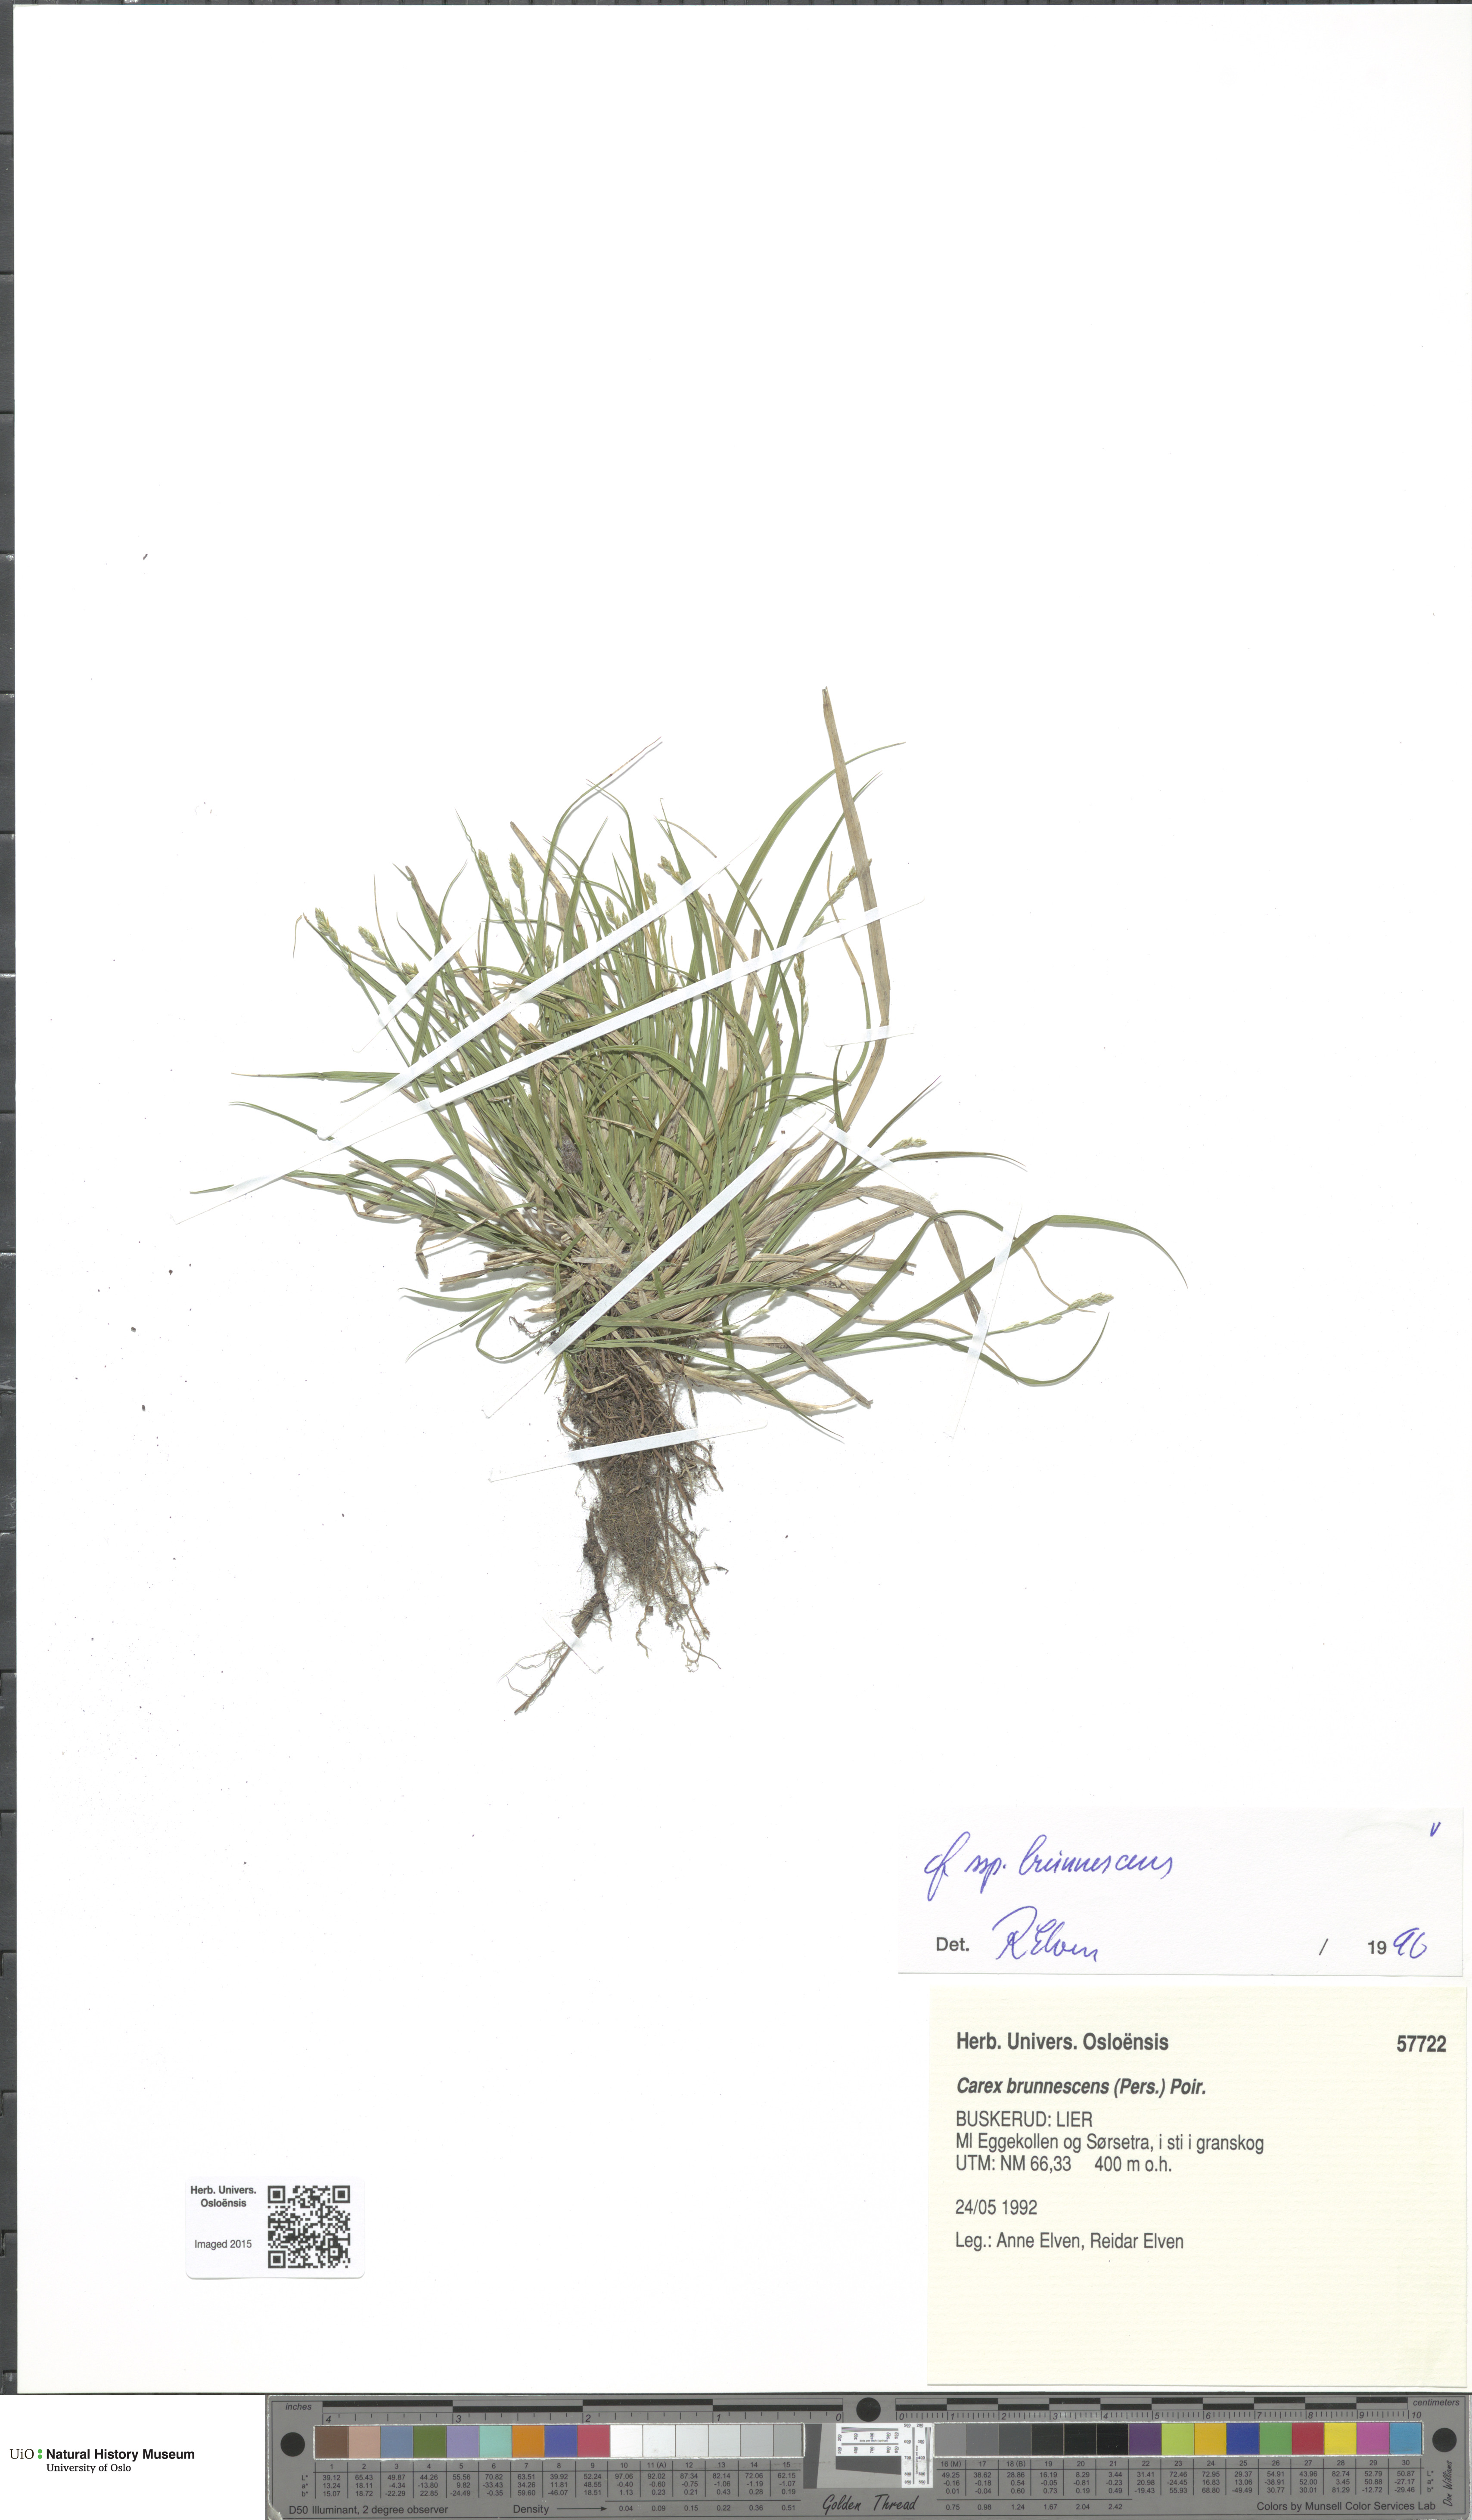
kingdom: Plantae
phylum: Tracheophyta
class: Liliopsida
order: Poales
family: Cyperaceae
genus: Carex
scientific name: Carex brunnescens
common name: Brown sedge
